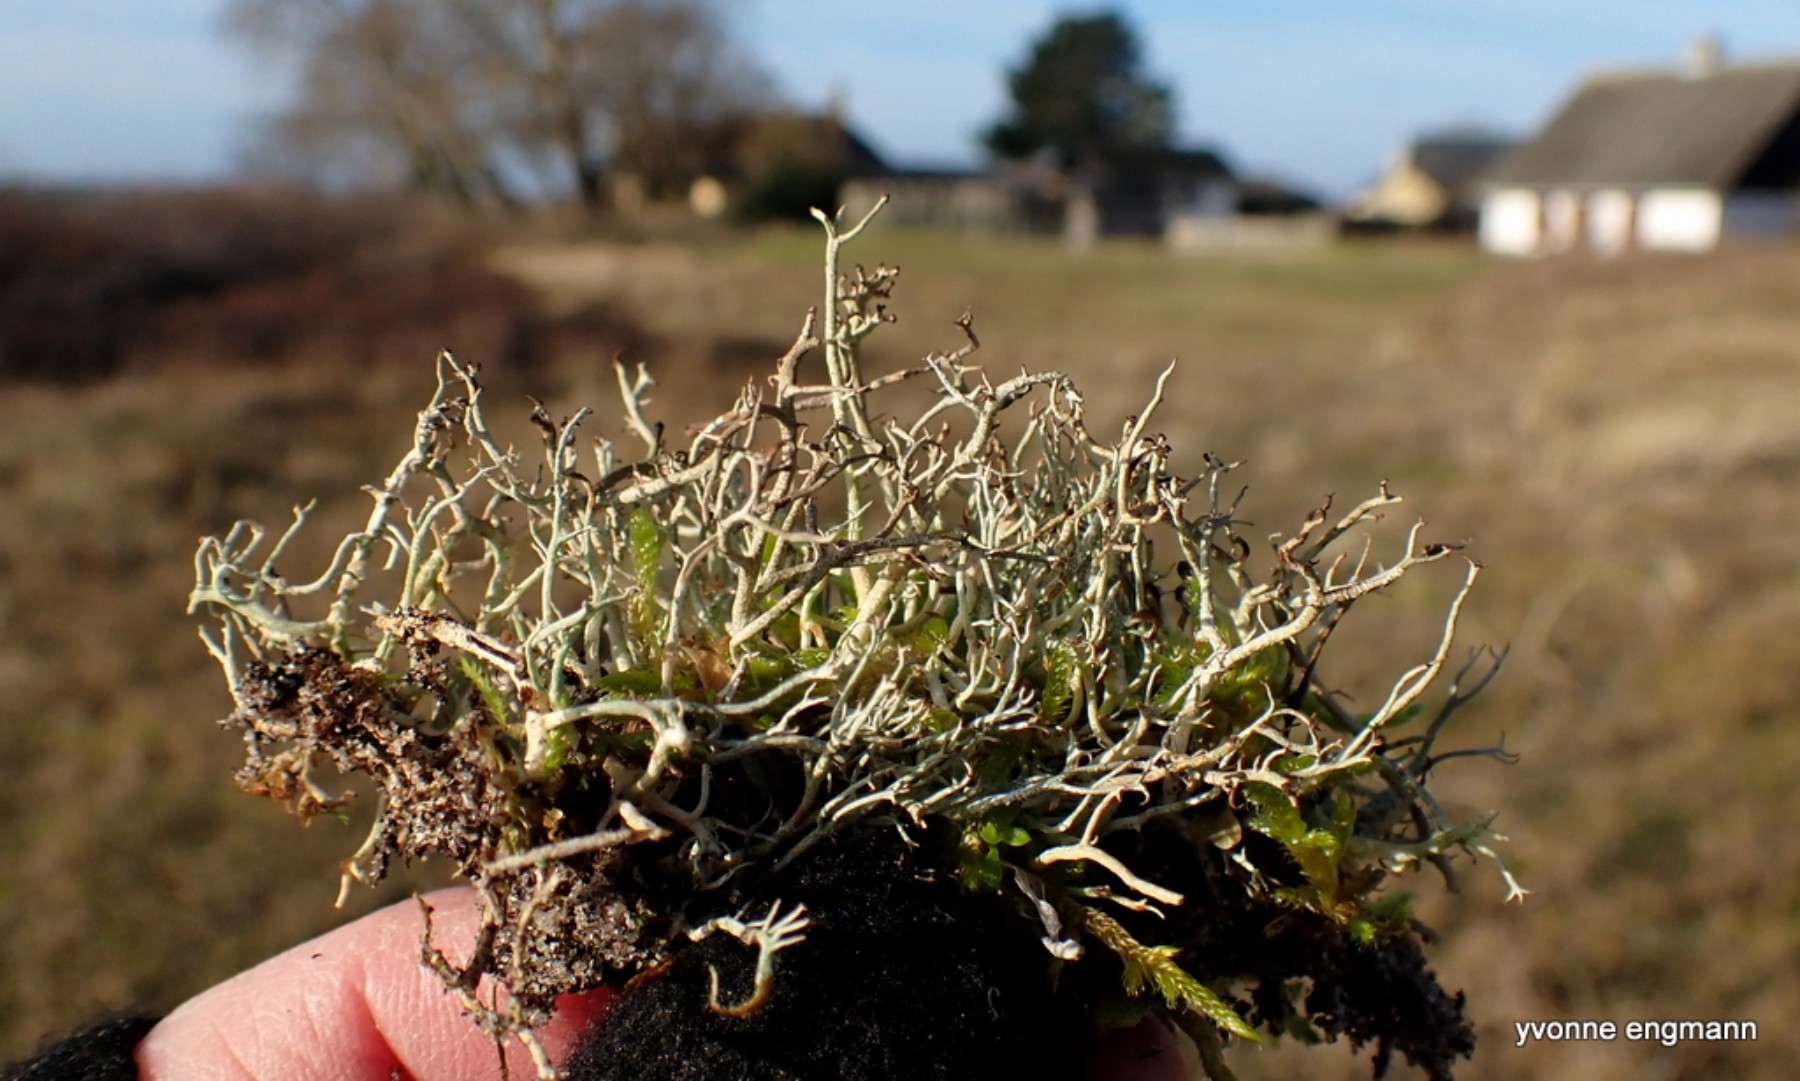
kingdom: Fungi
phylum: Ascomycota
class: Lecanoromycetes
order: Lecanorales
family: Cladoniaceae
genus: Cladonia
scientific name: Cladonia furcata
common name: kløftet bægerlav
